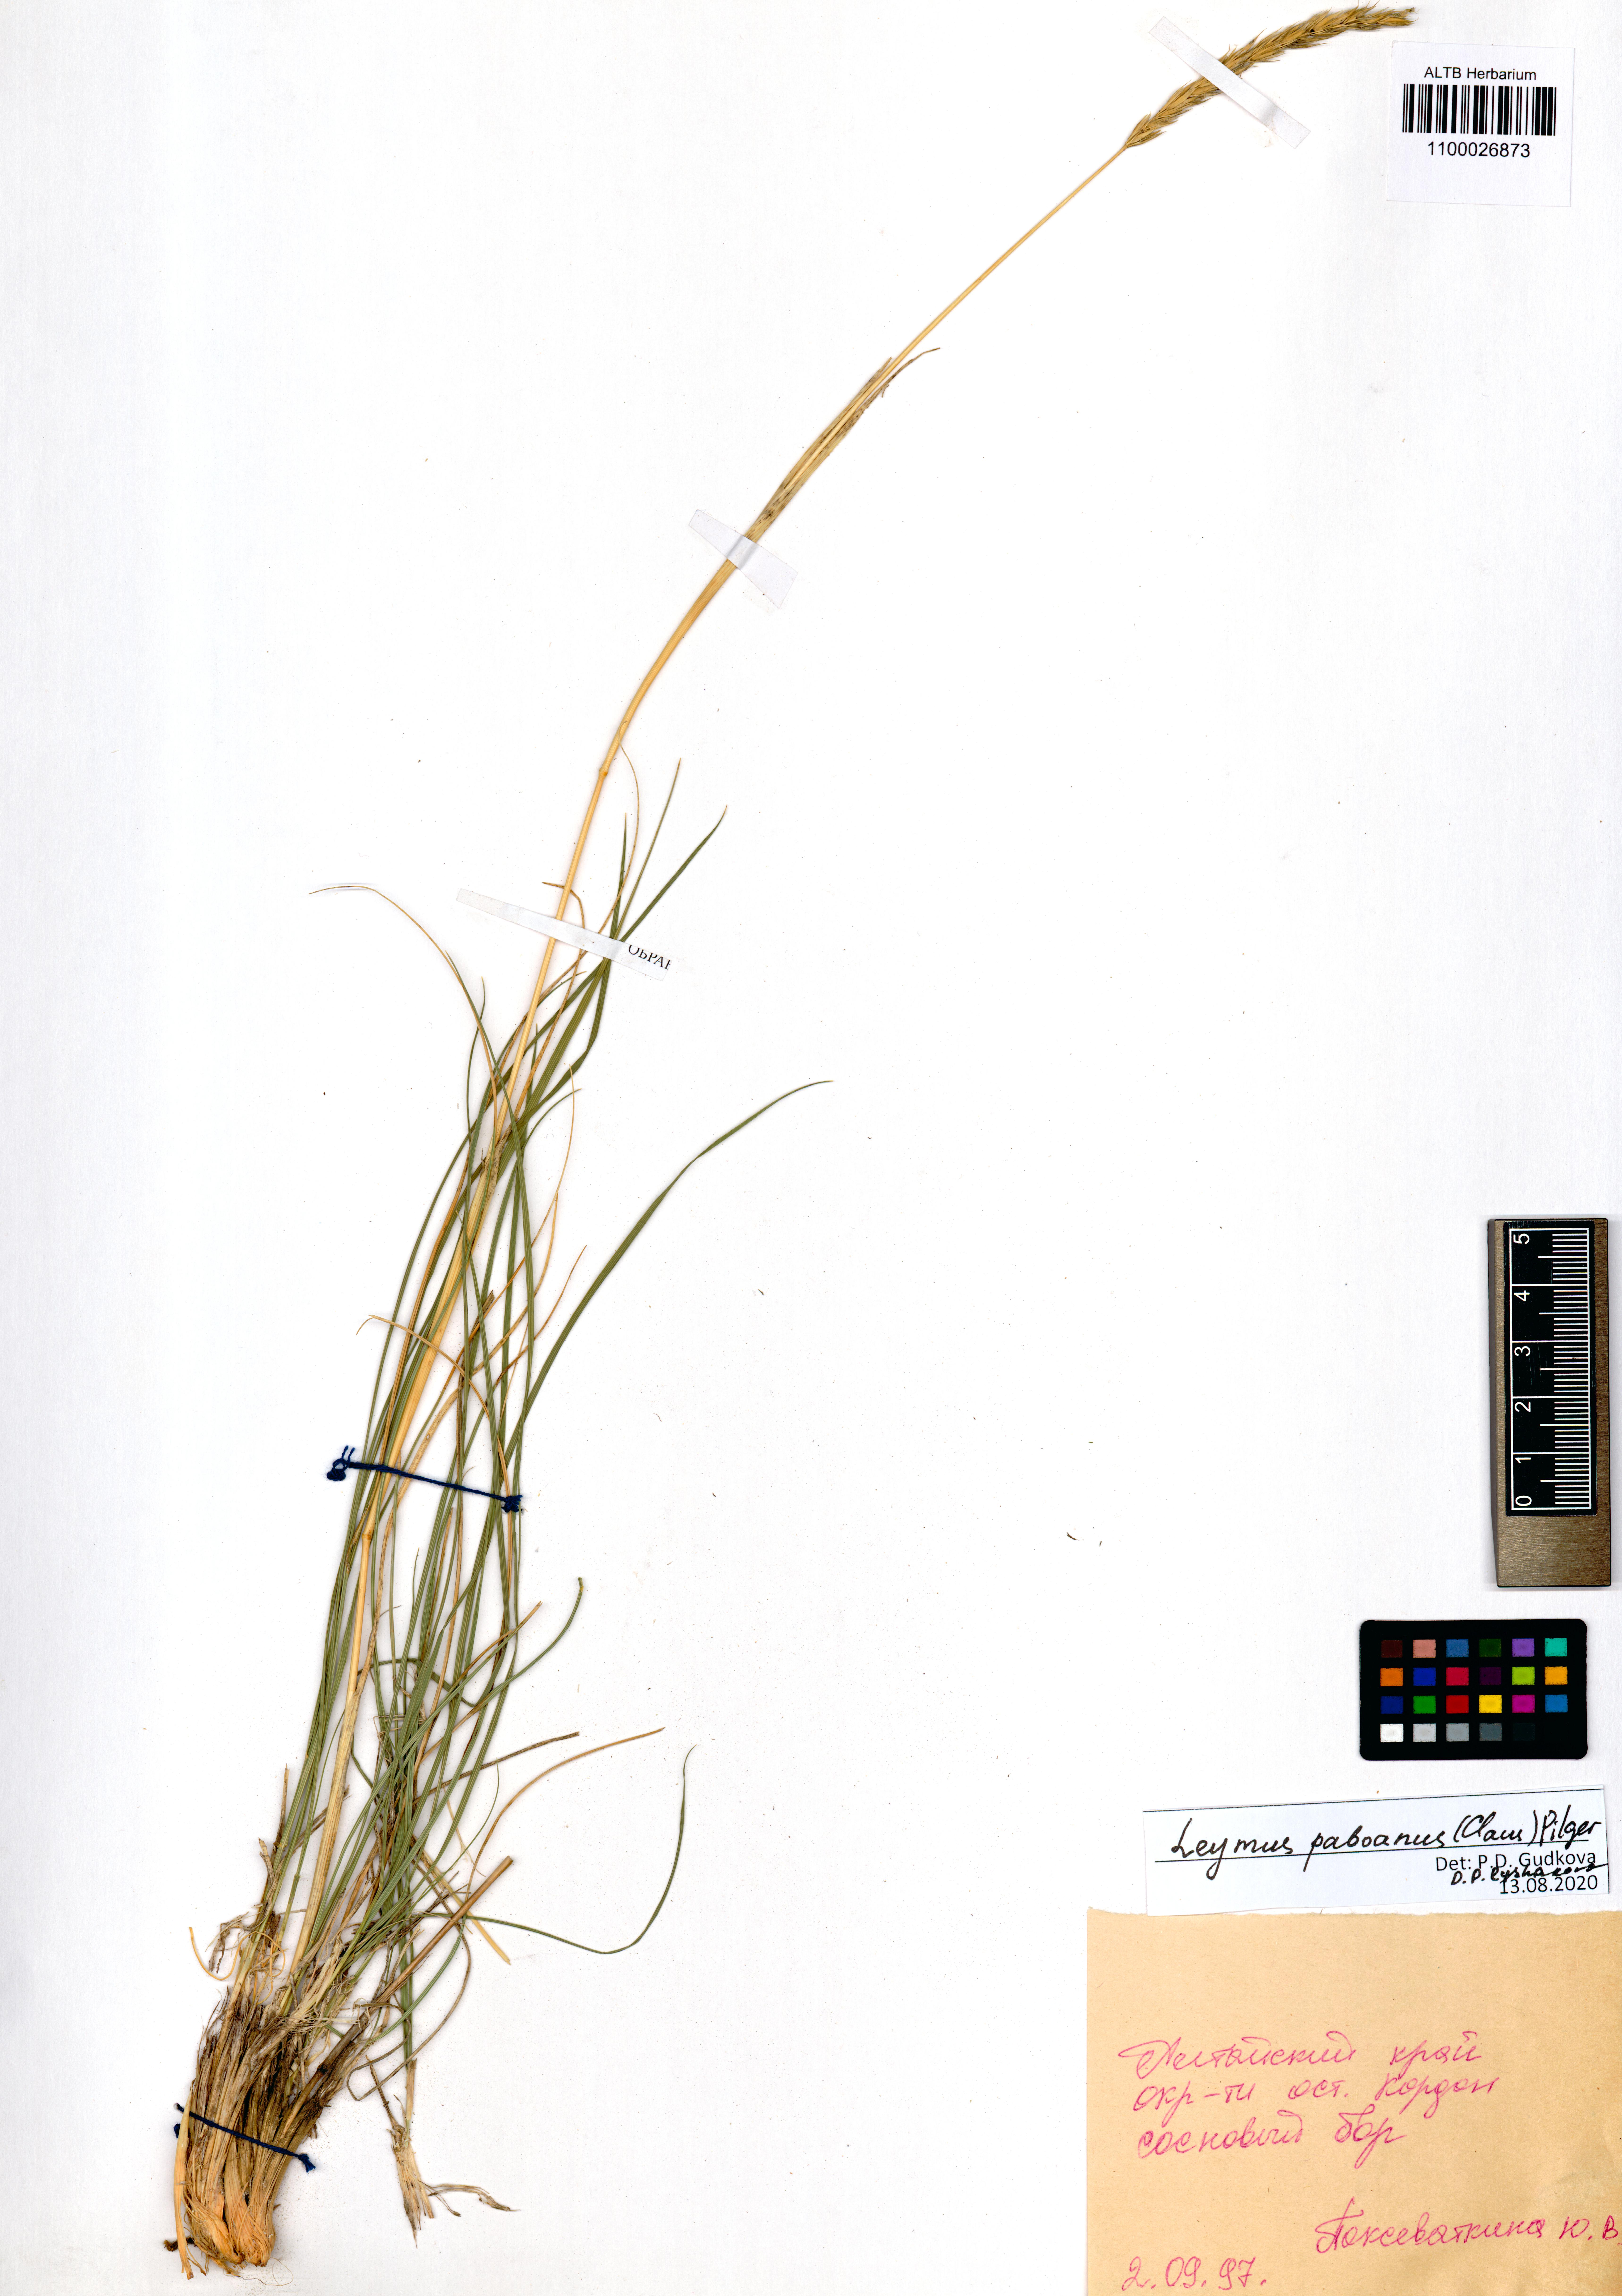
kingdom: Plantae
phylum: Tracheophyta
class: Liliopsida
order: Poales
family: Poaceae
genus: Leymus
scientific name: Leymus paboanus
